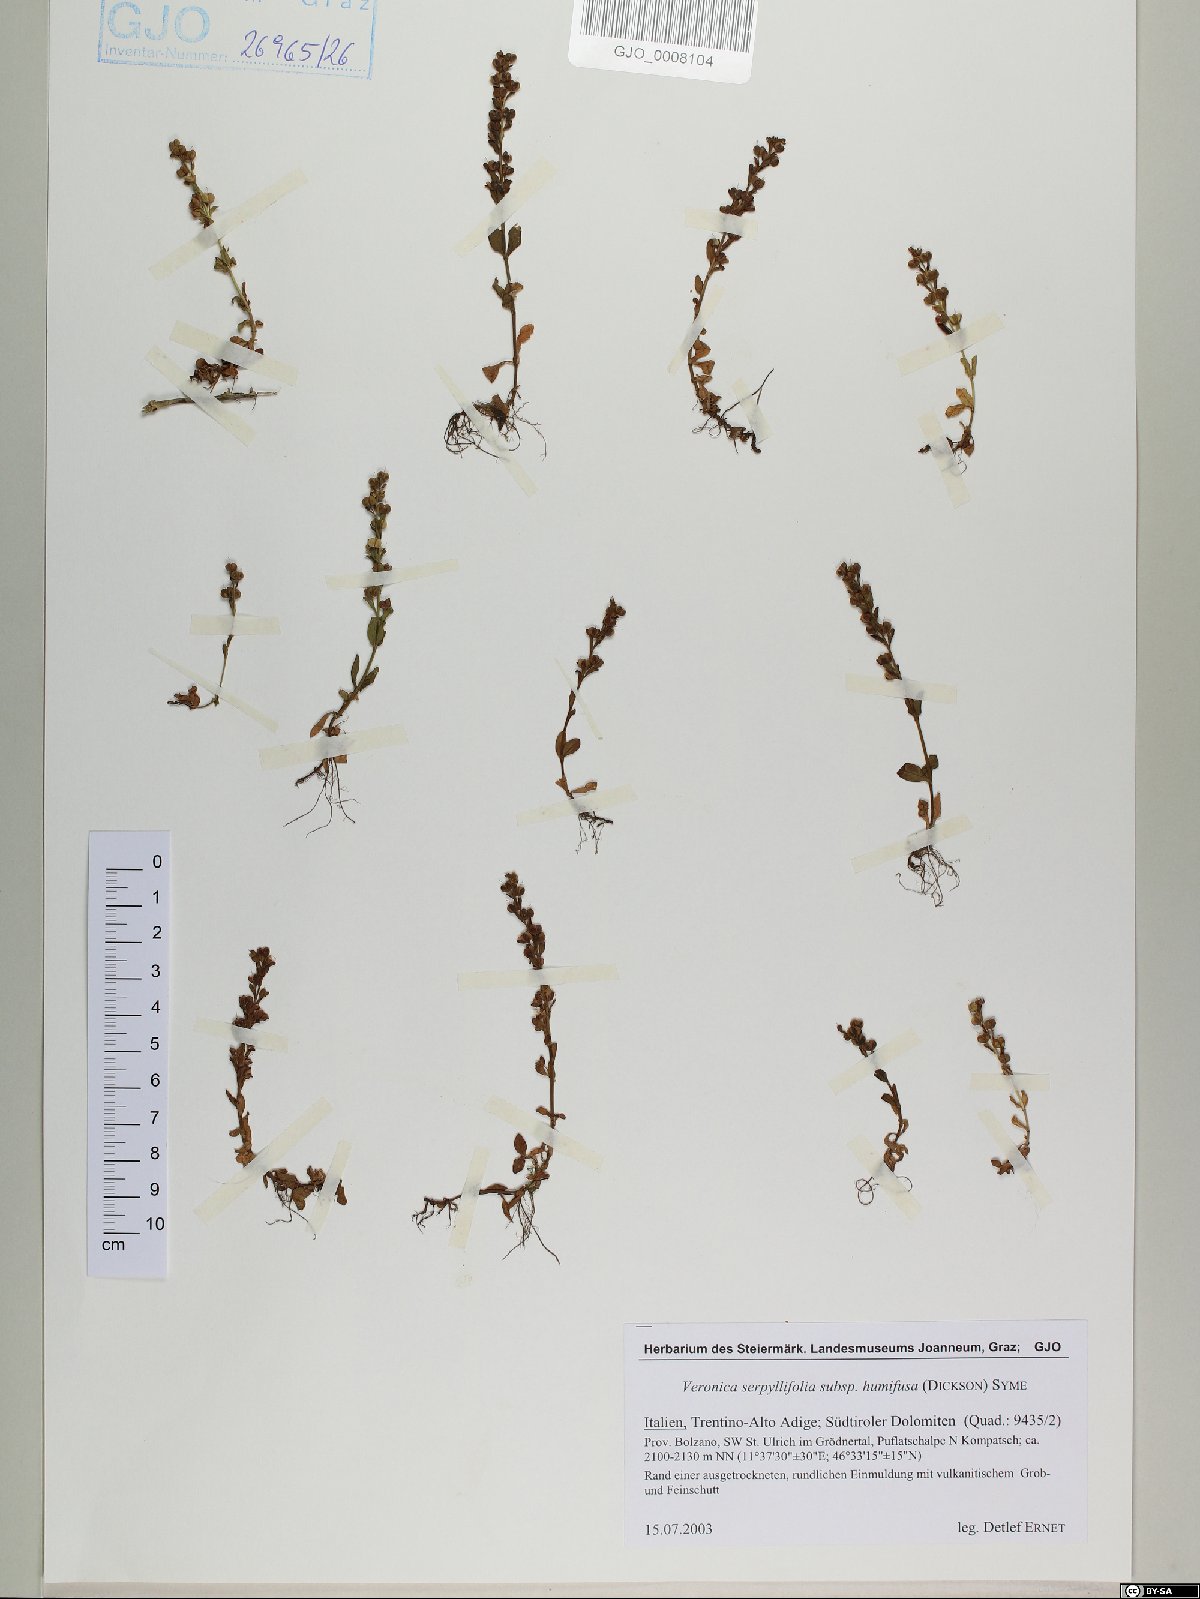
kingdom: Plantae
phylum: Tracheophyta
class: Magnoliopsida
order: Lamiales
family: Plantaginaceae
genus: Veronica
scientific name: Veronica serpyllifolia
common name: Thyme-leaved speedwell
